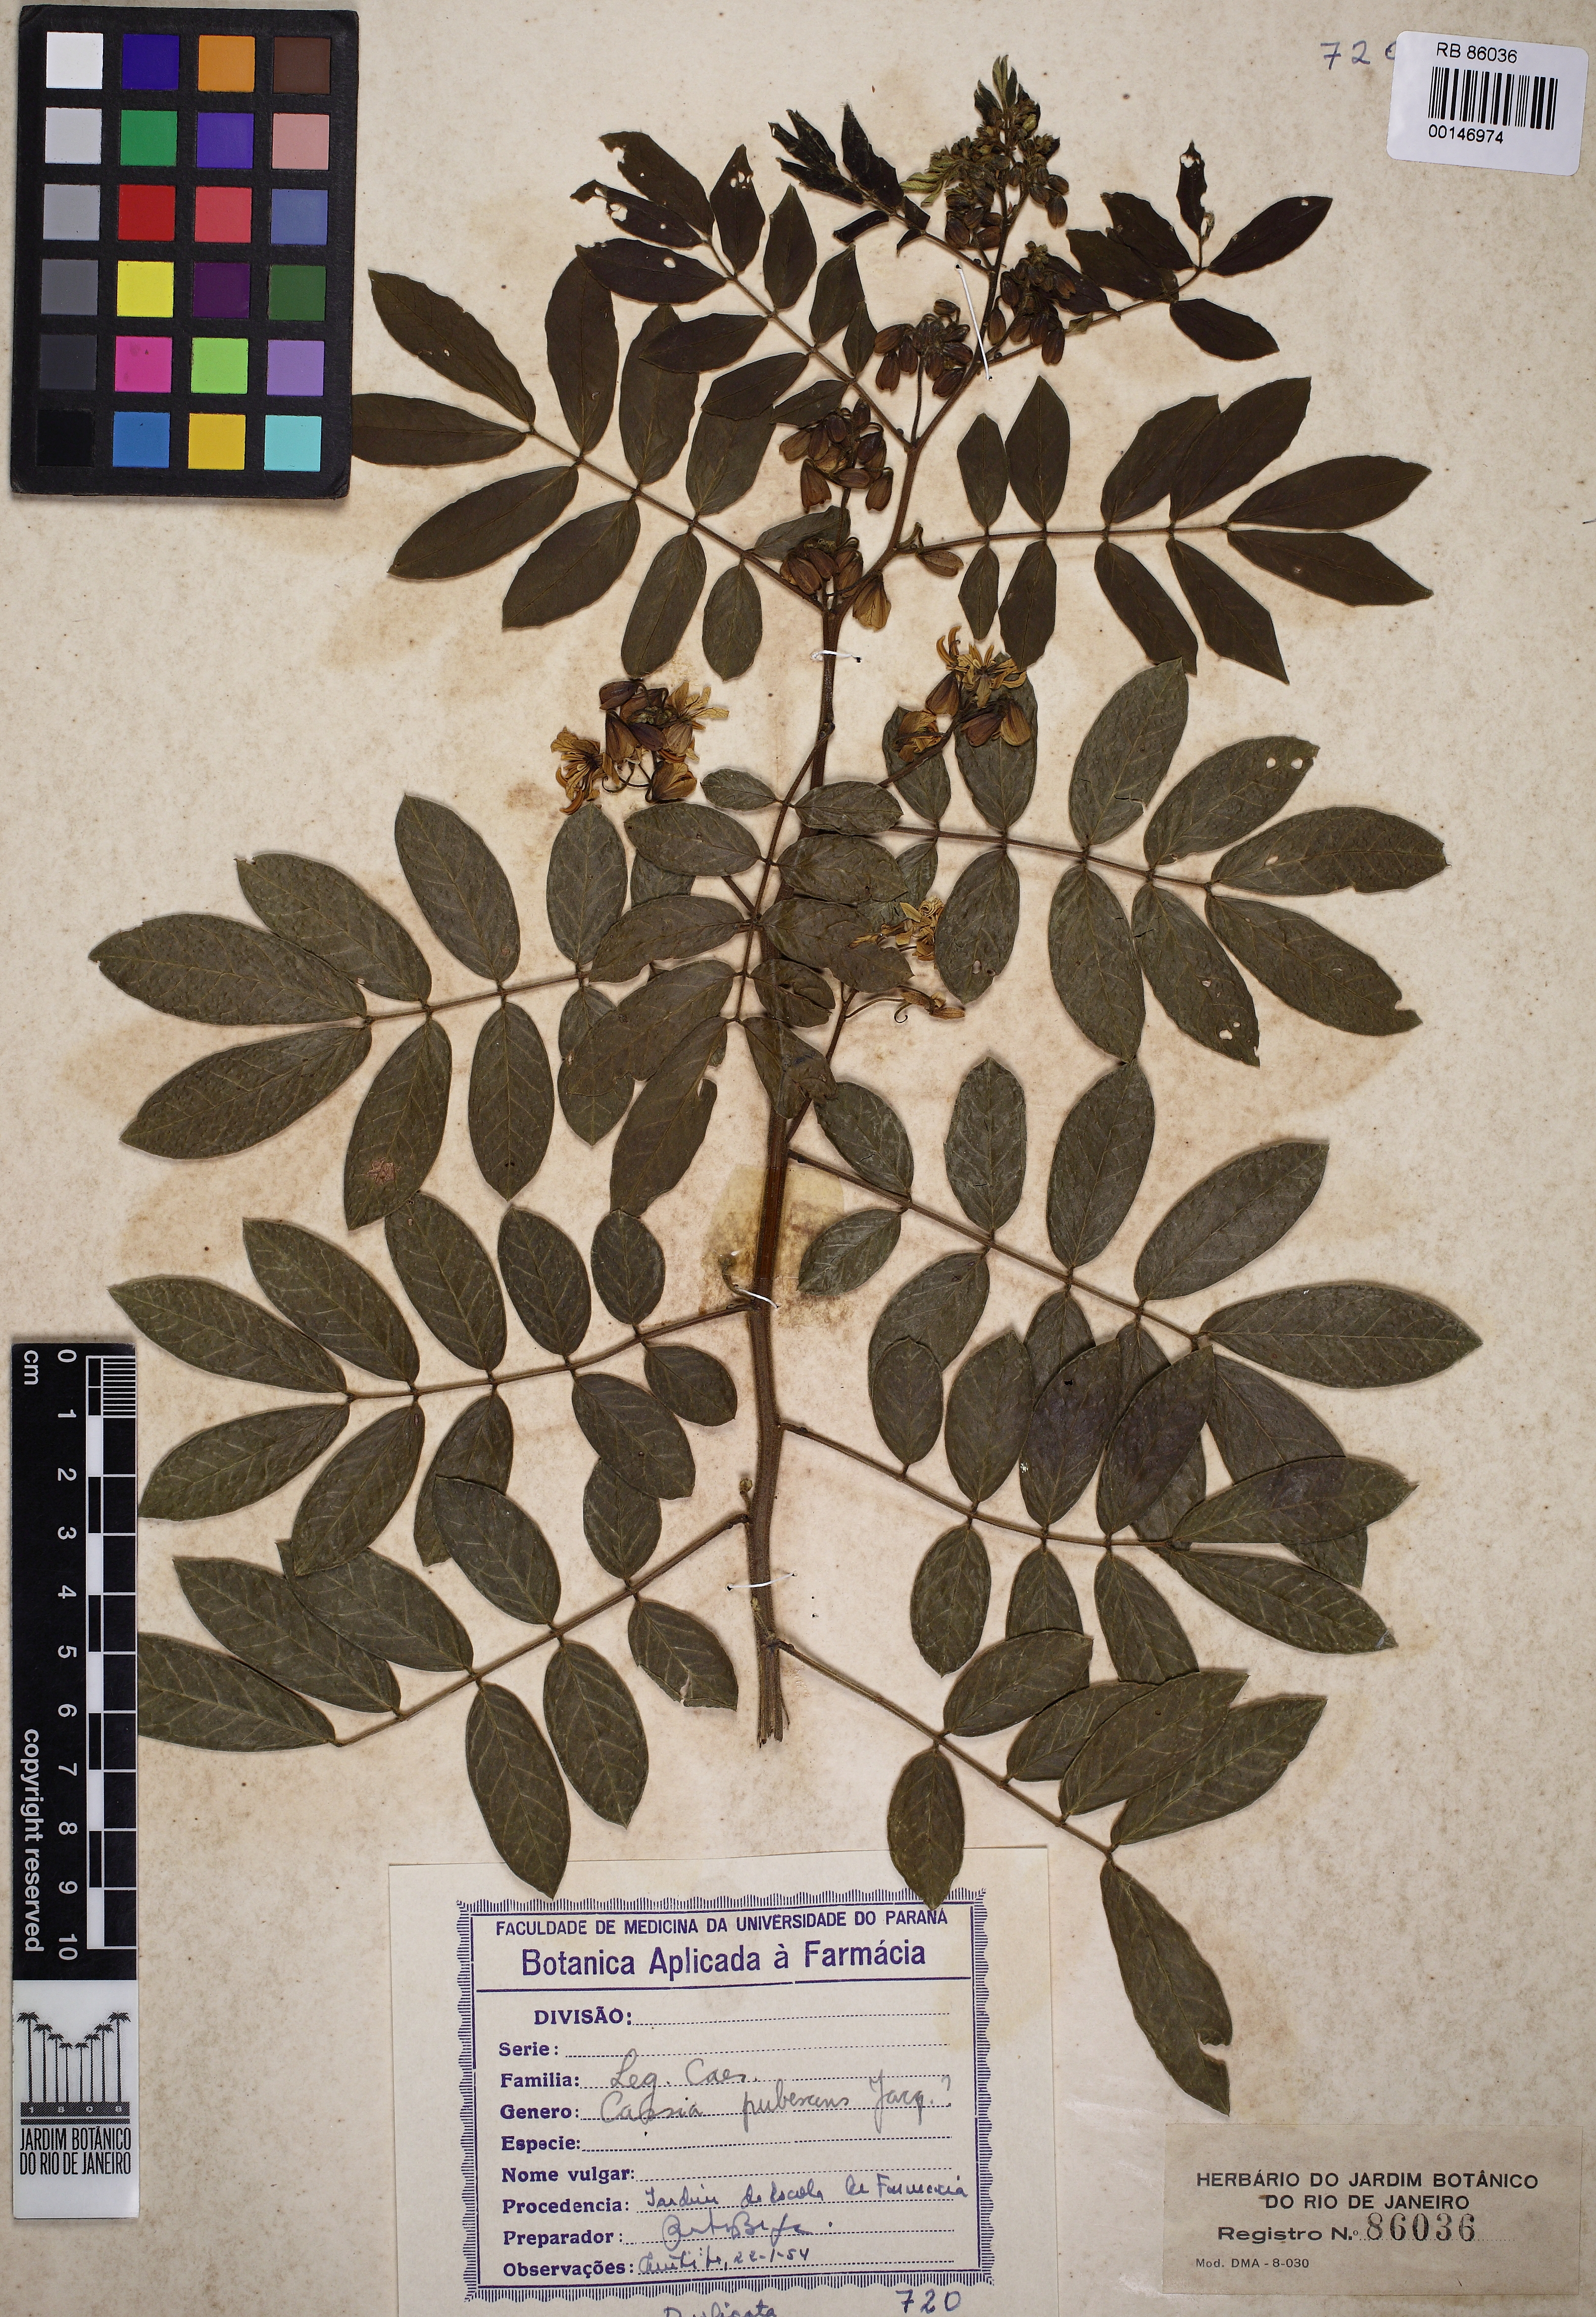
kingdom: Plantae
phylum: Tracheophyta
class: Magnoliopsida
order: Fabales
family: Fabaceae
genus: Senna
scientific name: Senna hirsuta
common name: Woolly senna
